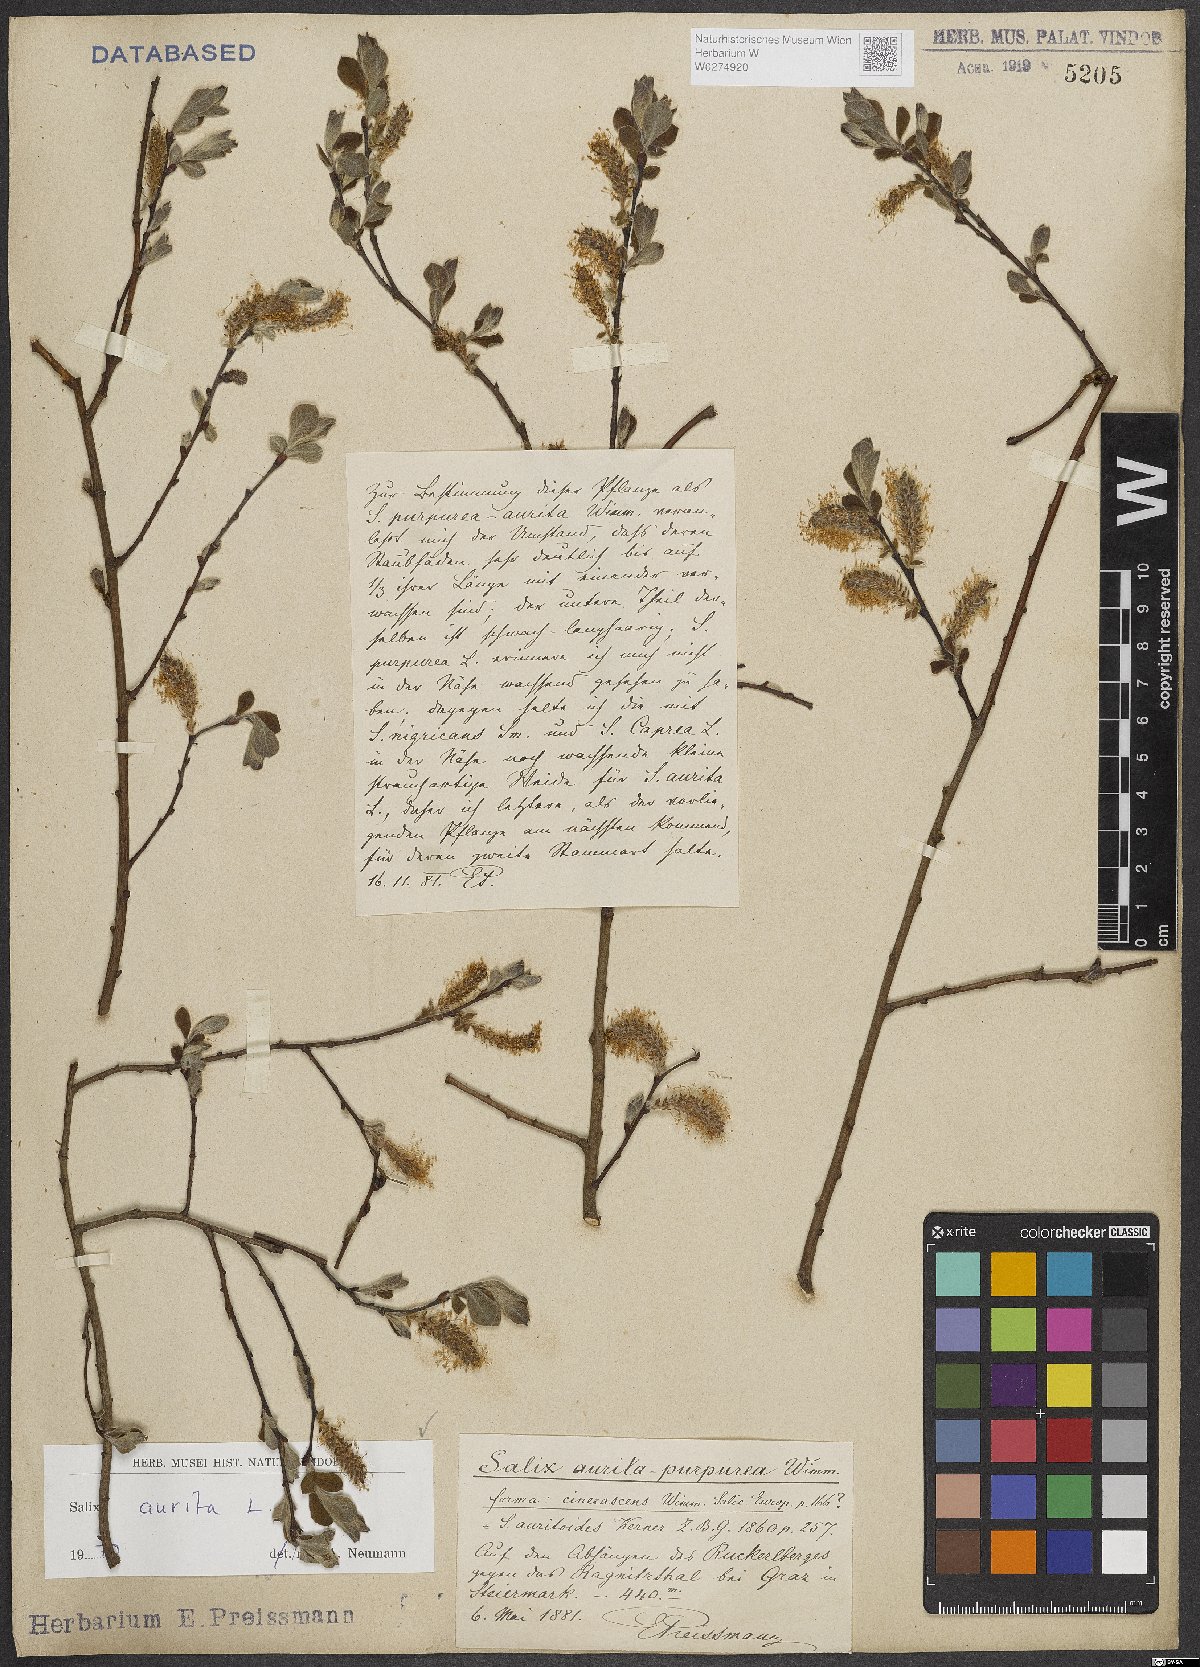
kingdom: Plantae
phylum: Tracheophyta
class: Magnoliopsida
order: Malpighiales
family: Salicaceae
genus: Salix
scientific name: Salix aurita
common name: Eared willow
